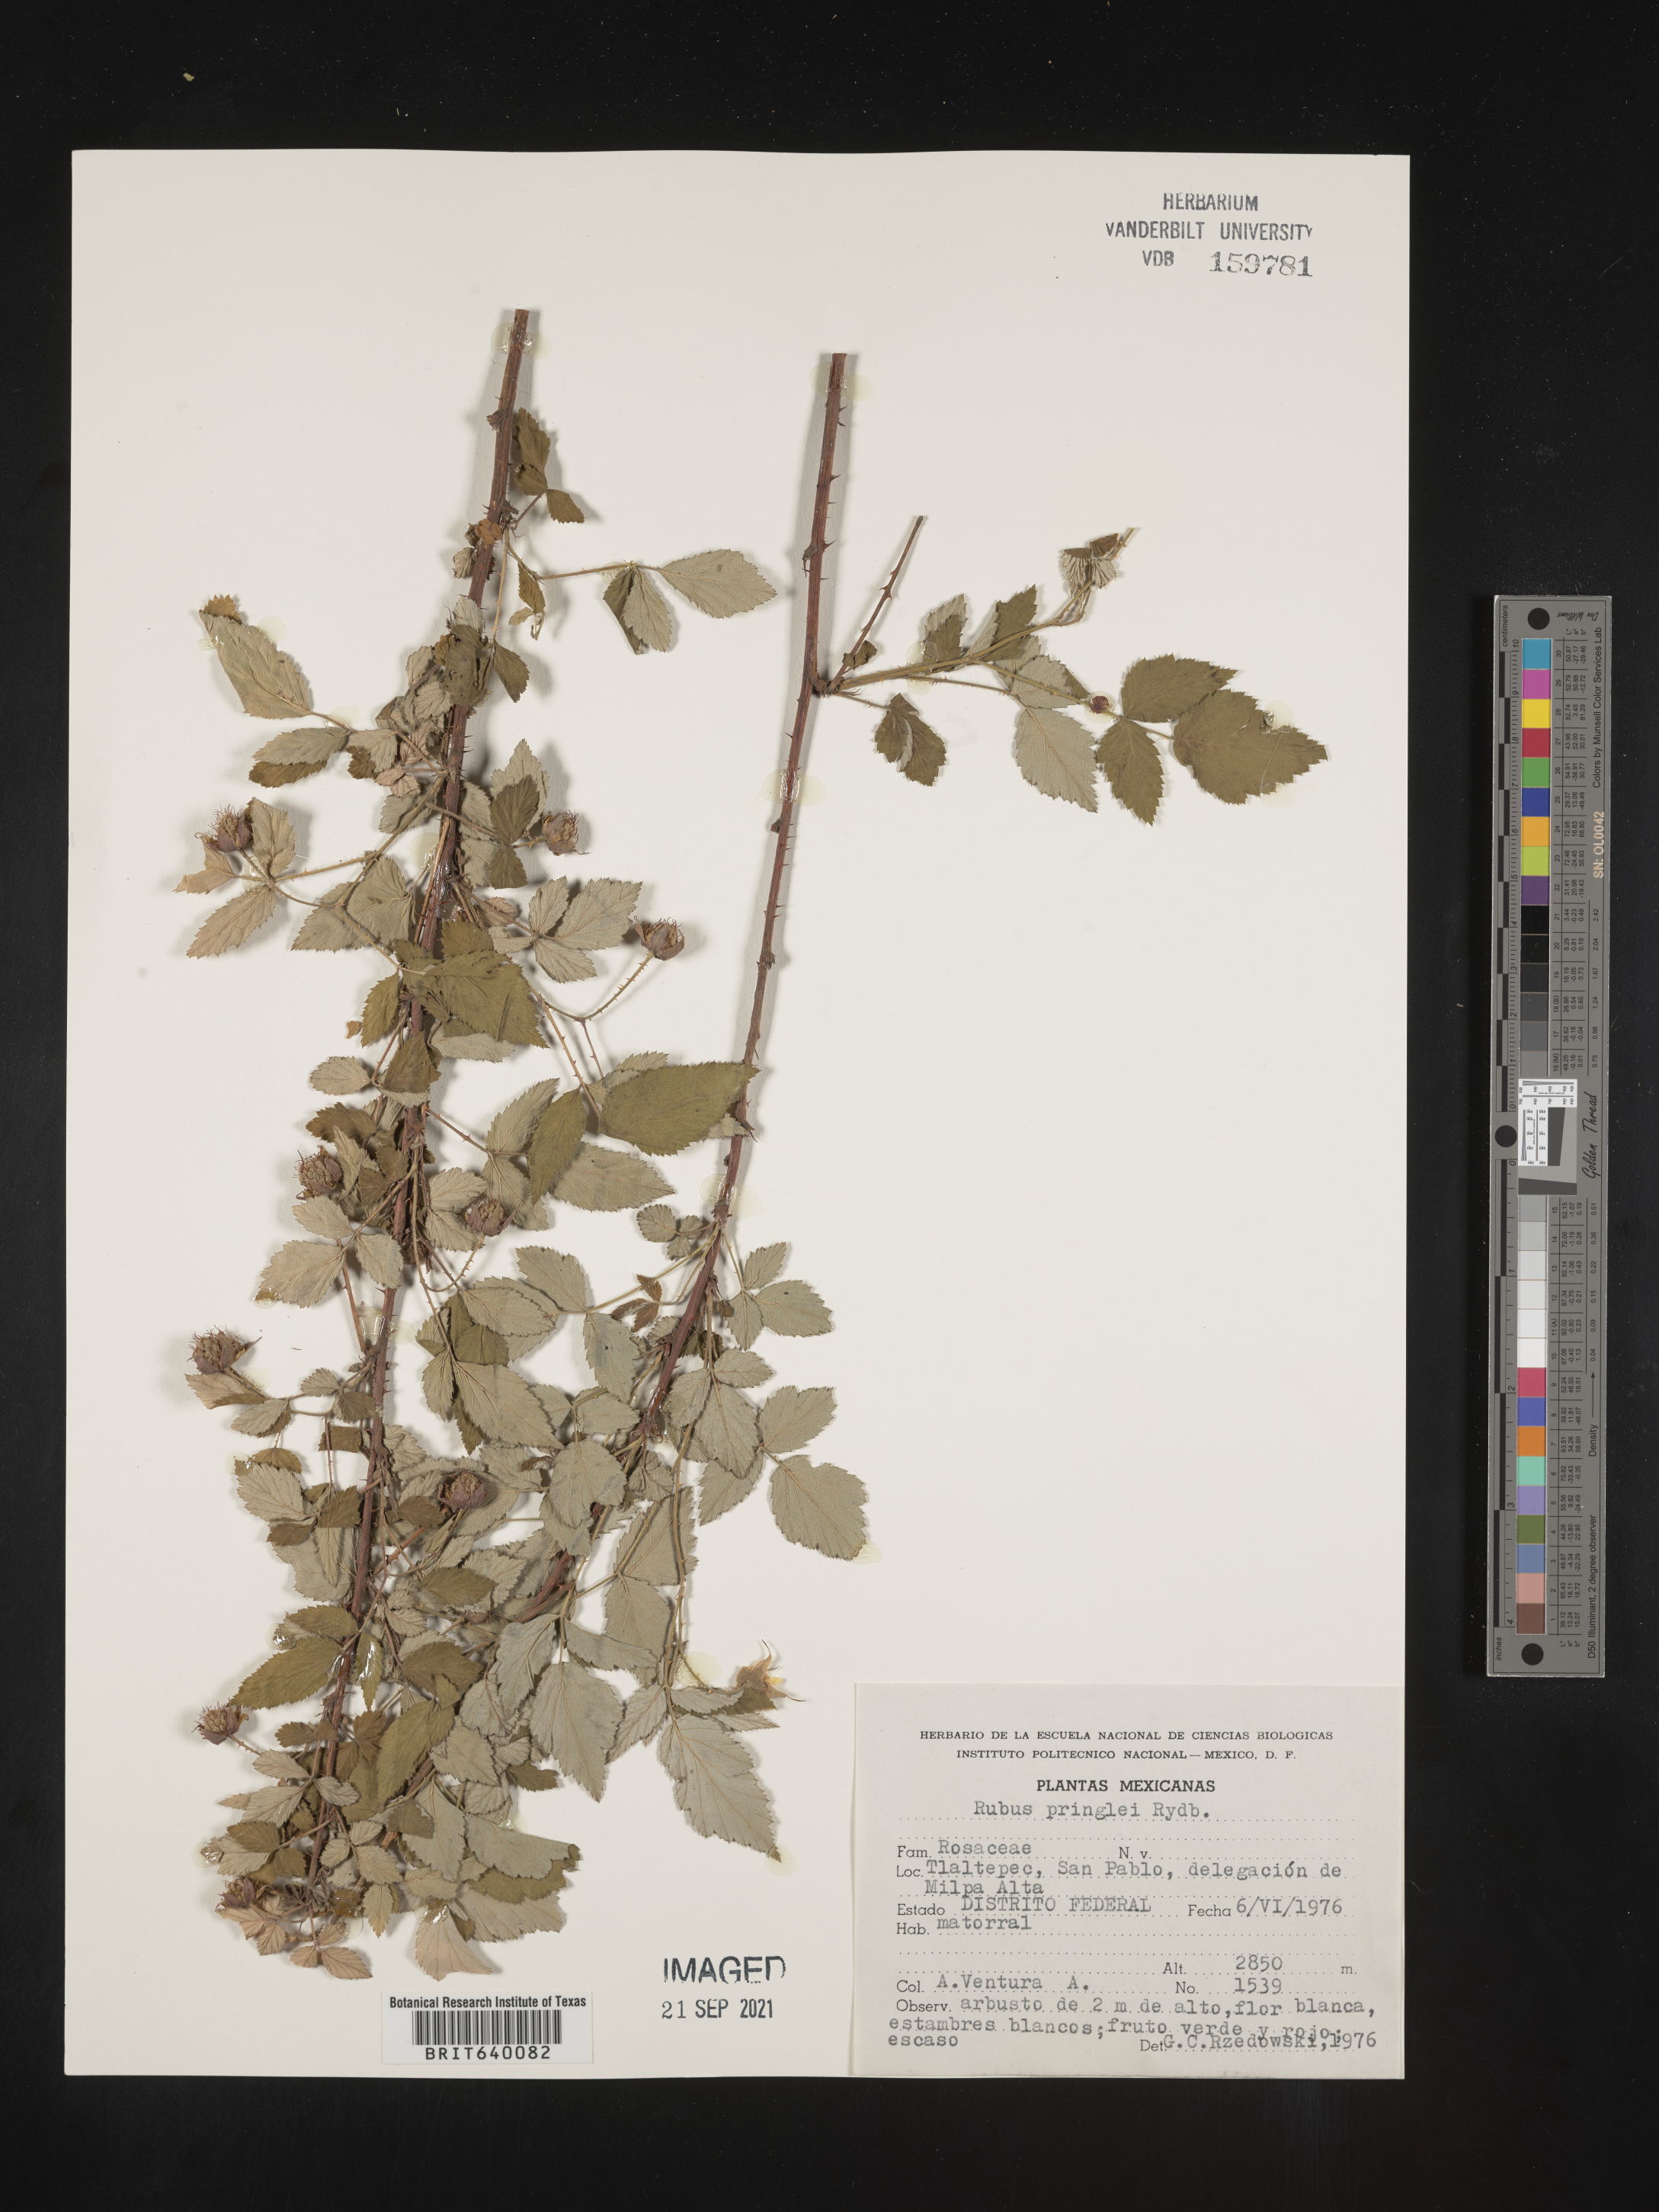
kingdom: Plantae
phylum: Tracheophyta
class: Magnoliopsida
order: Rosales
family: Rosaceae
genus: Rubus
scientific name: Rubus
